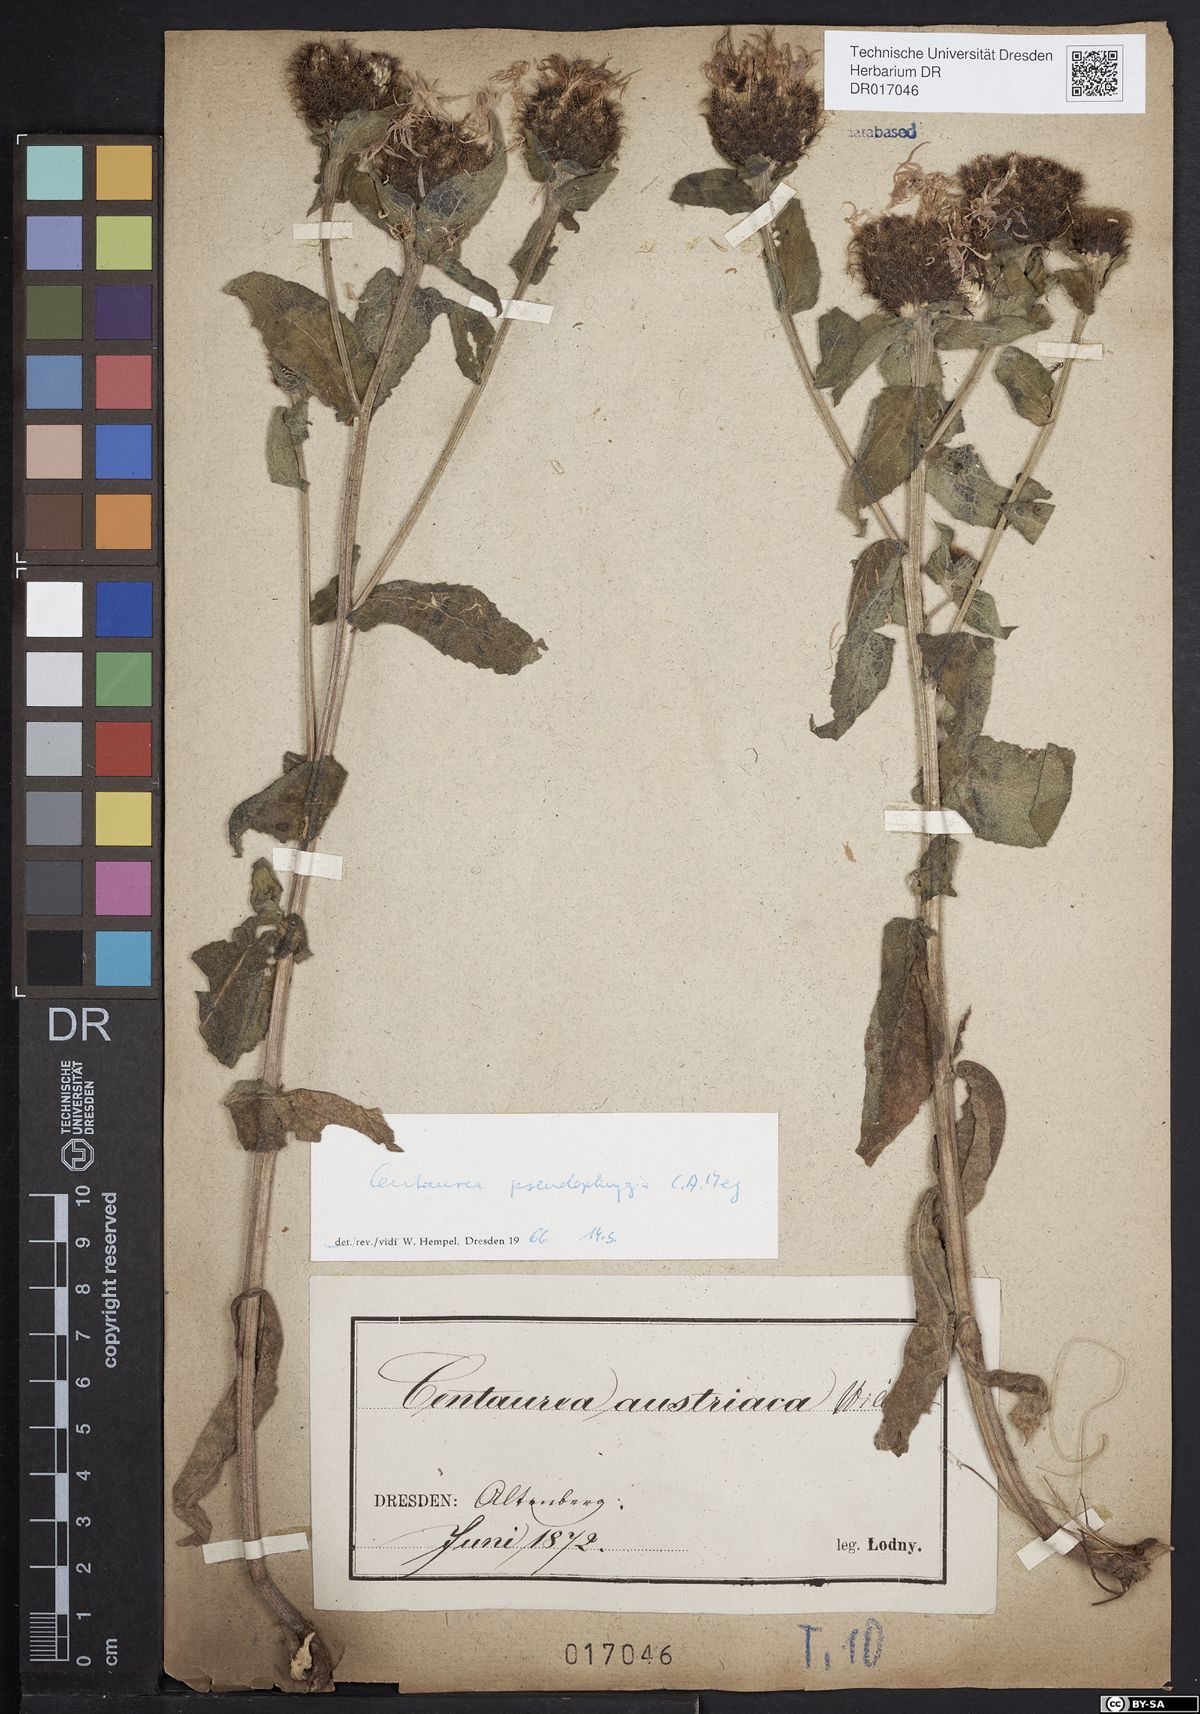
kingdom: Plantae
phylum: Tracheophyta
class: Magnoliopsida
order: Asterales
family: Asteraceae
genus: Centaurea
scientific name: Centaurea pseudophrygia
